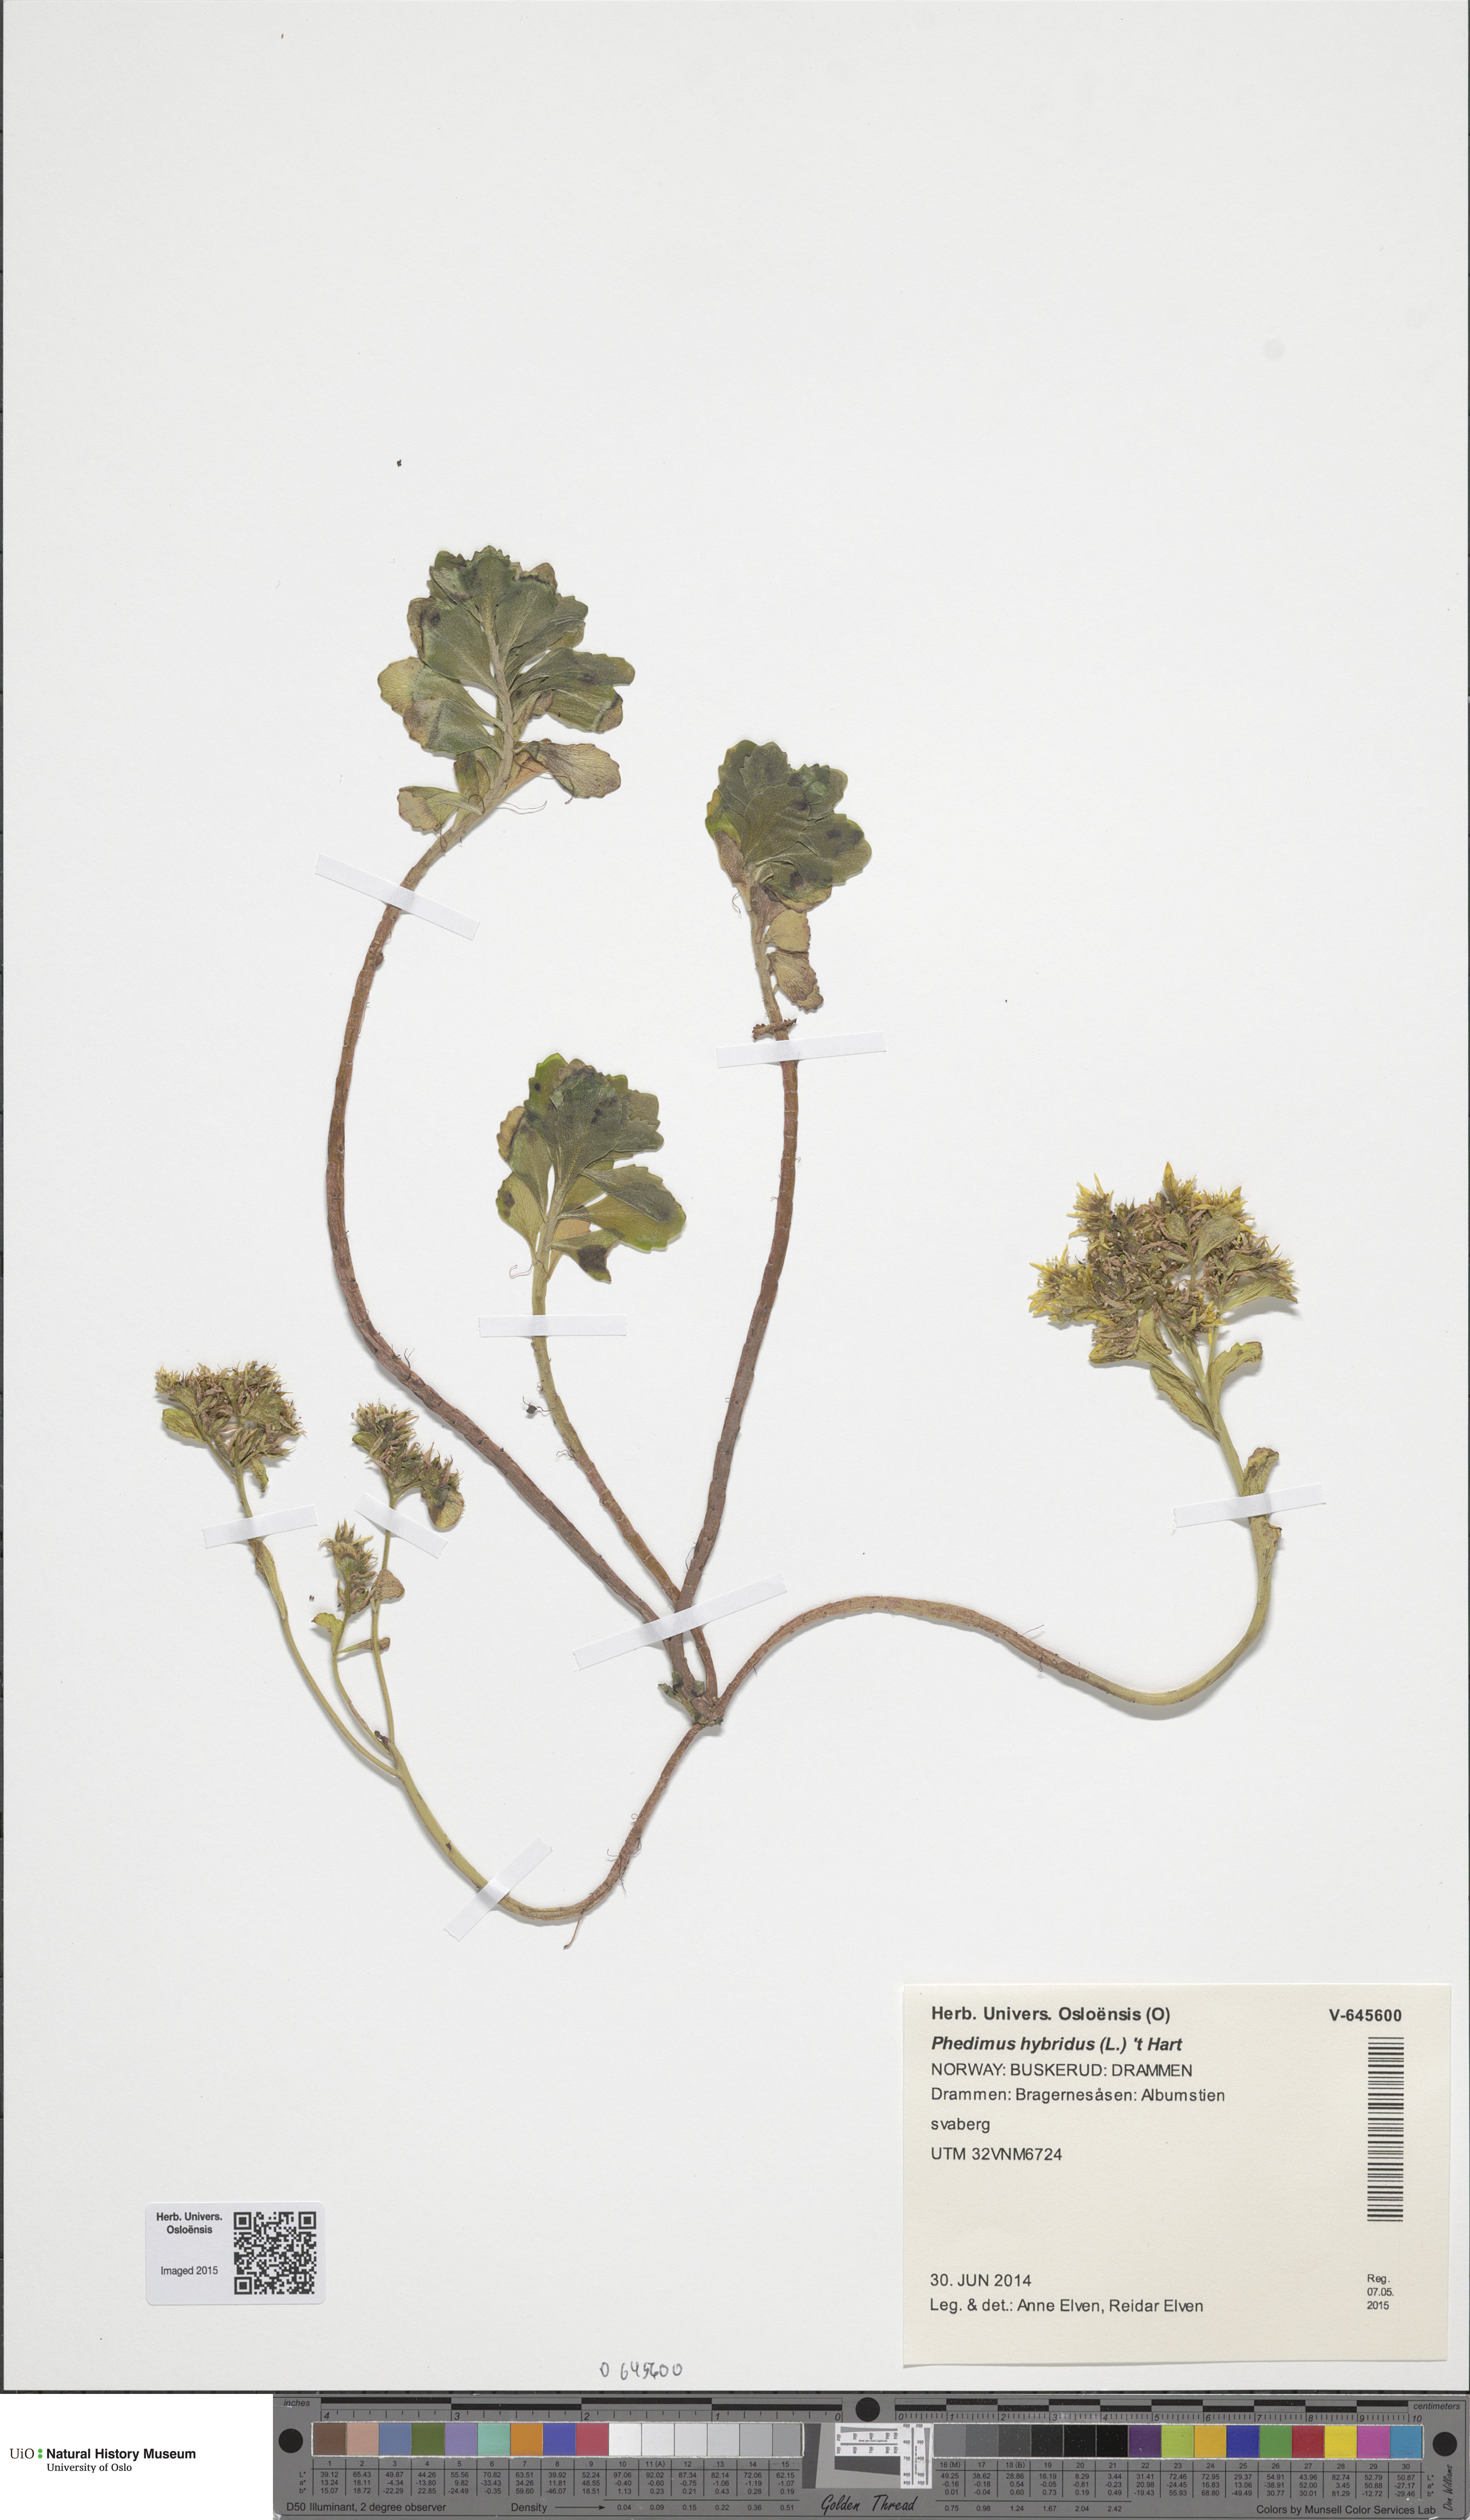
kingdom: Plantae
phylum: Tracheophyta
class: Magnoliopsida
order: Saxifragales
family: Crassulaceae
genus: Phedimus
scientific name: Phedimus hybridus
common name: Hybrid stonecrop
